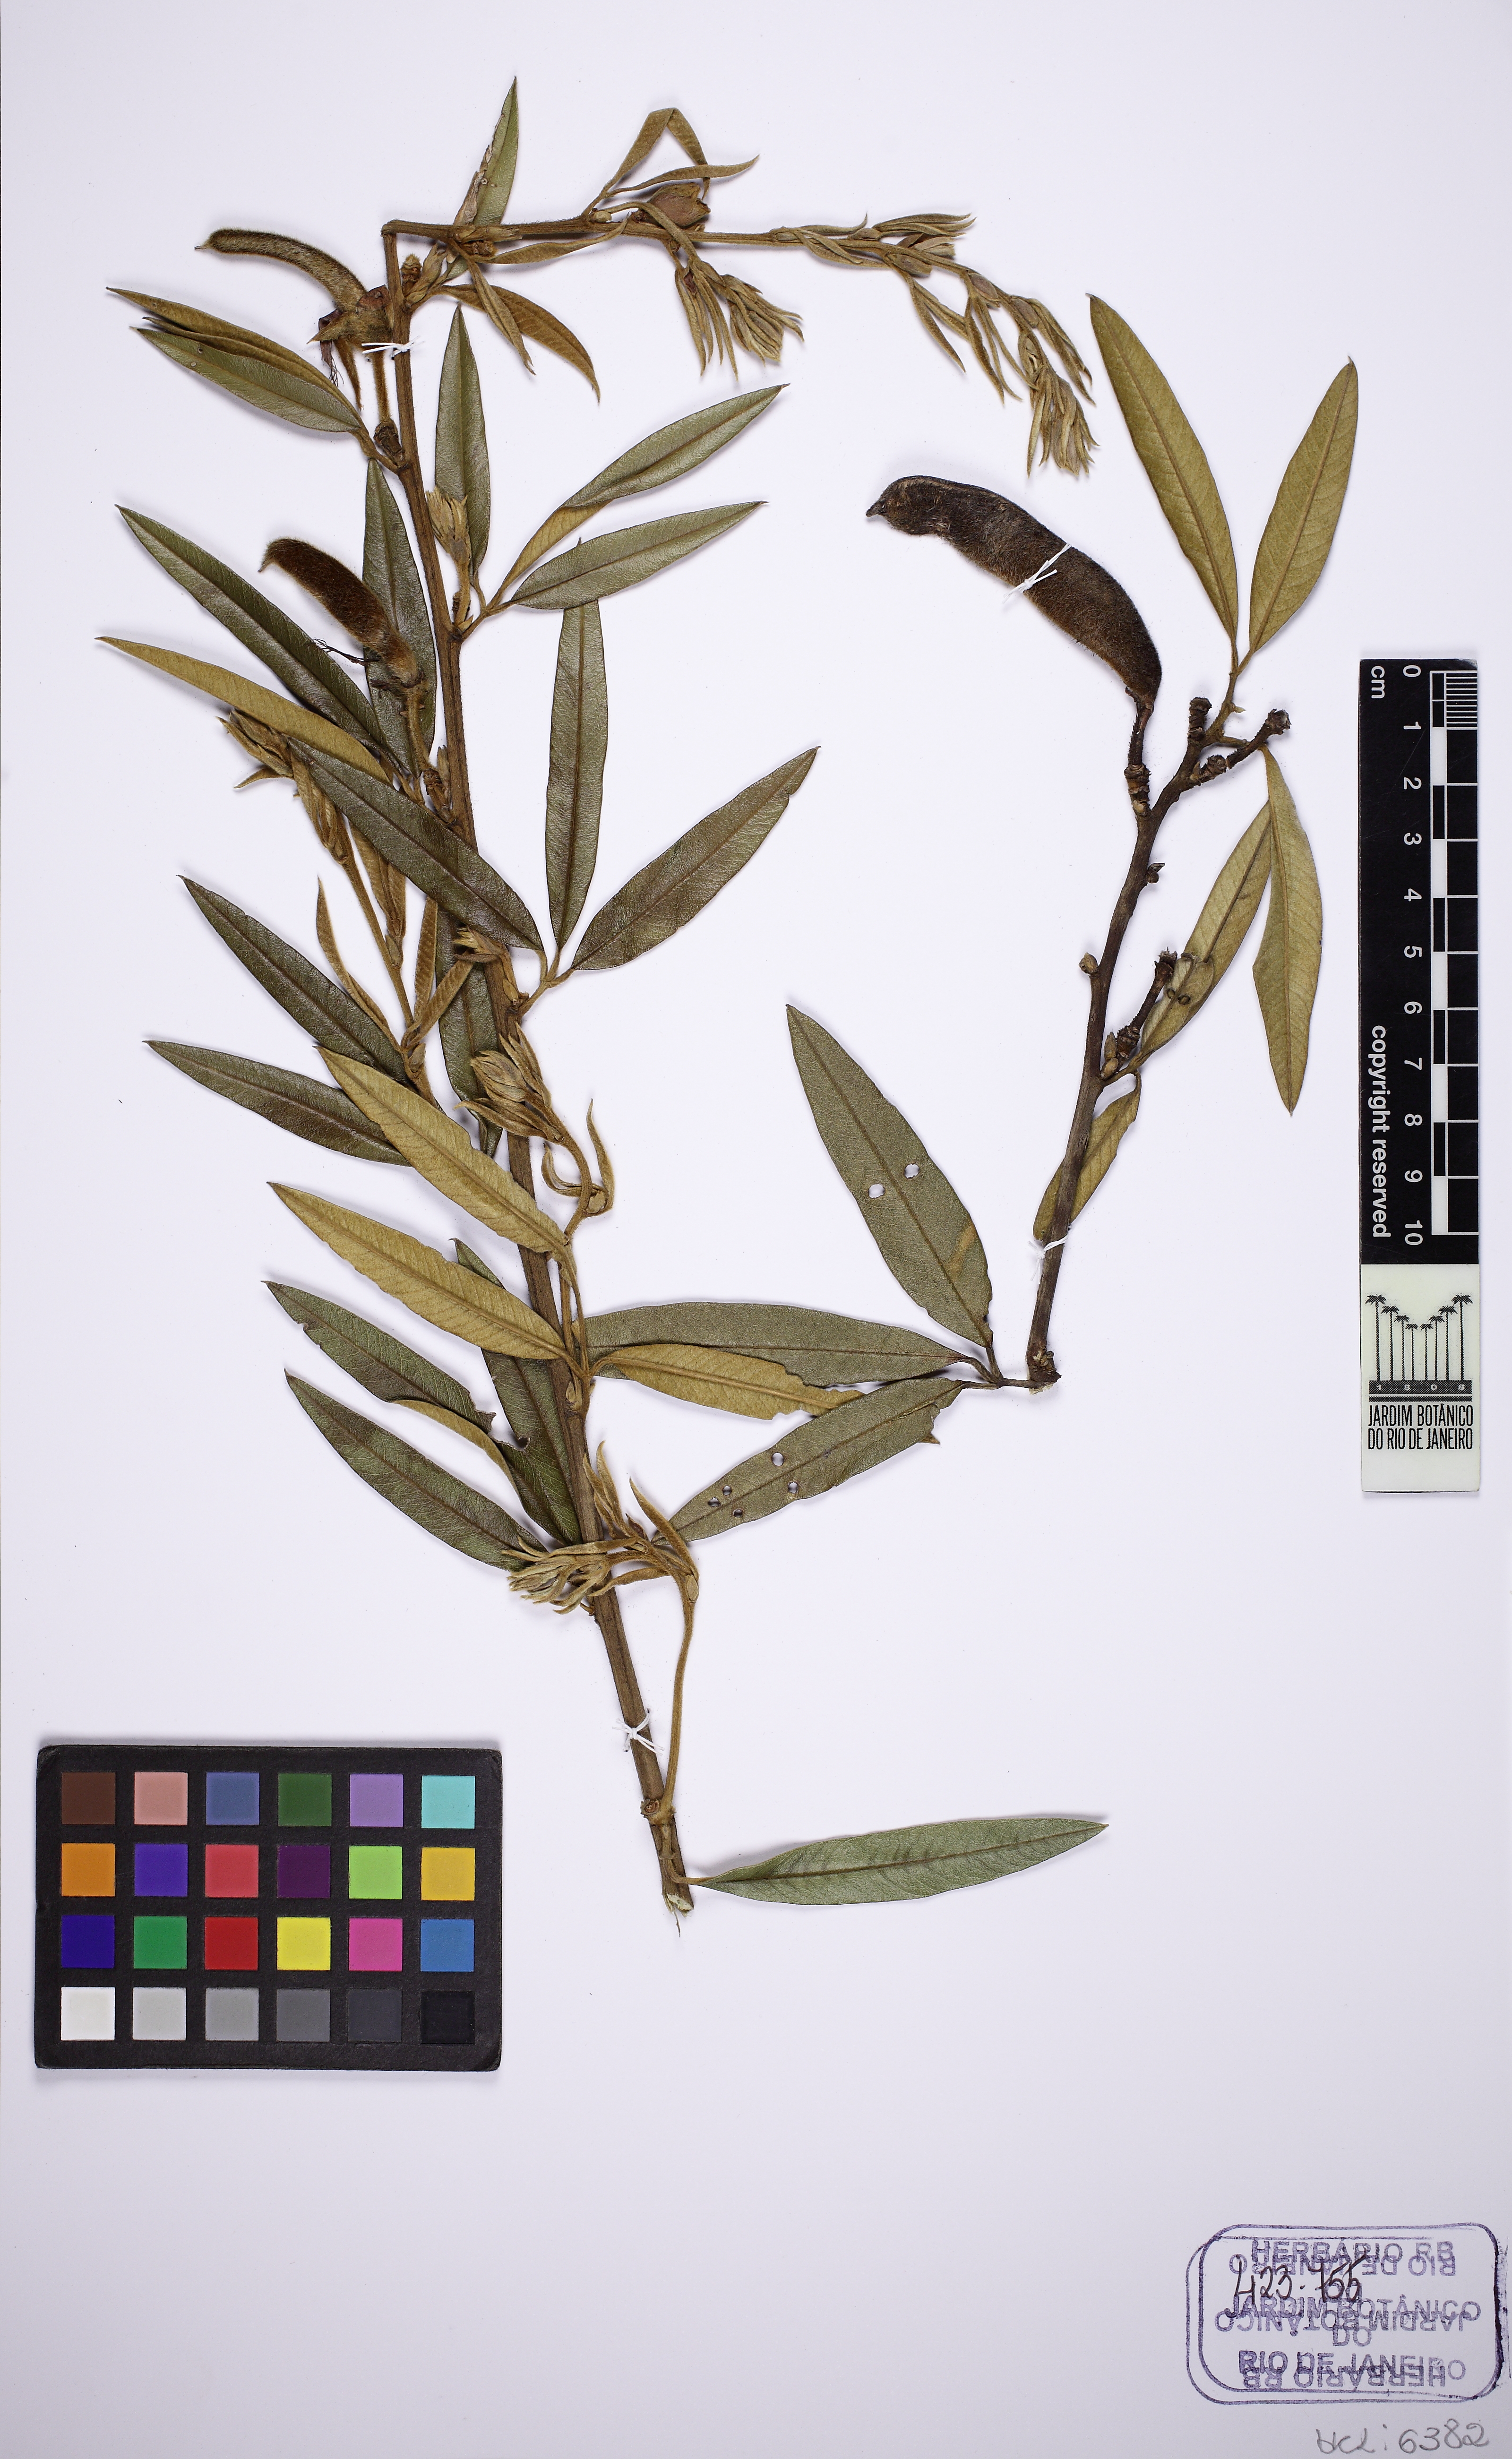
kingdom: Plantae
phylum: Tracheophyta
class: Magnoliopsida
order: Fabales
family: Fabaceae
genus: Collaea
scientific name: Collaea speciosa
